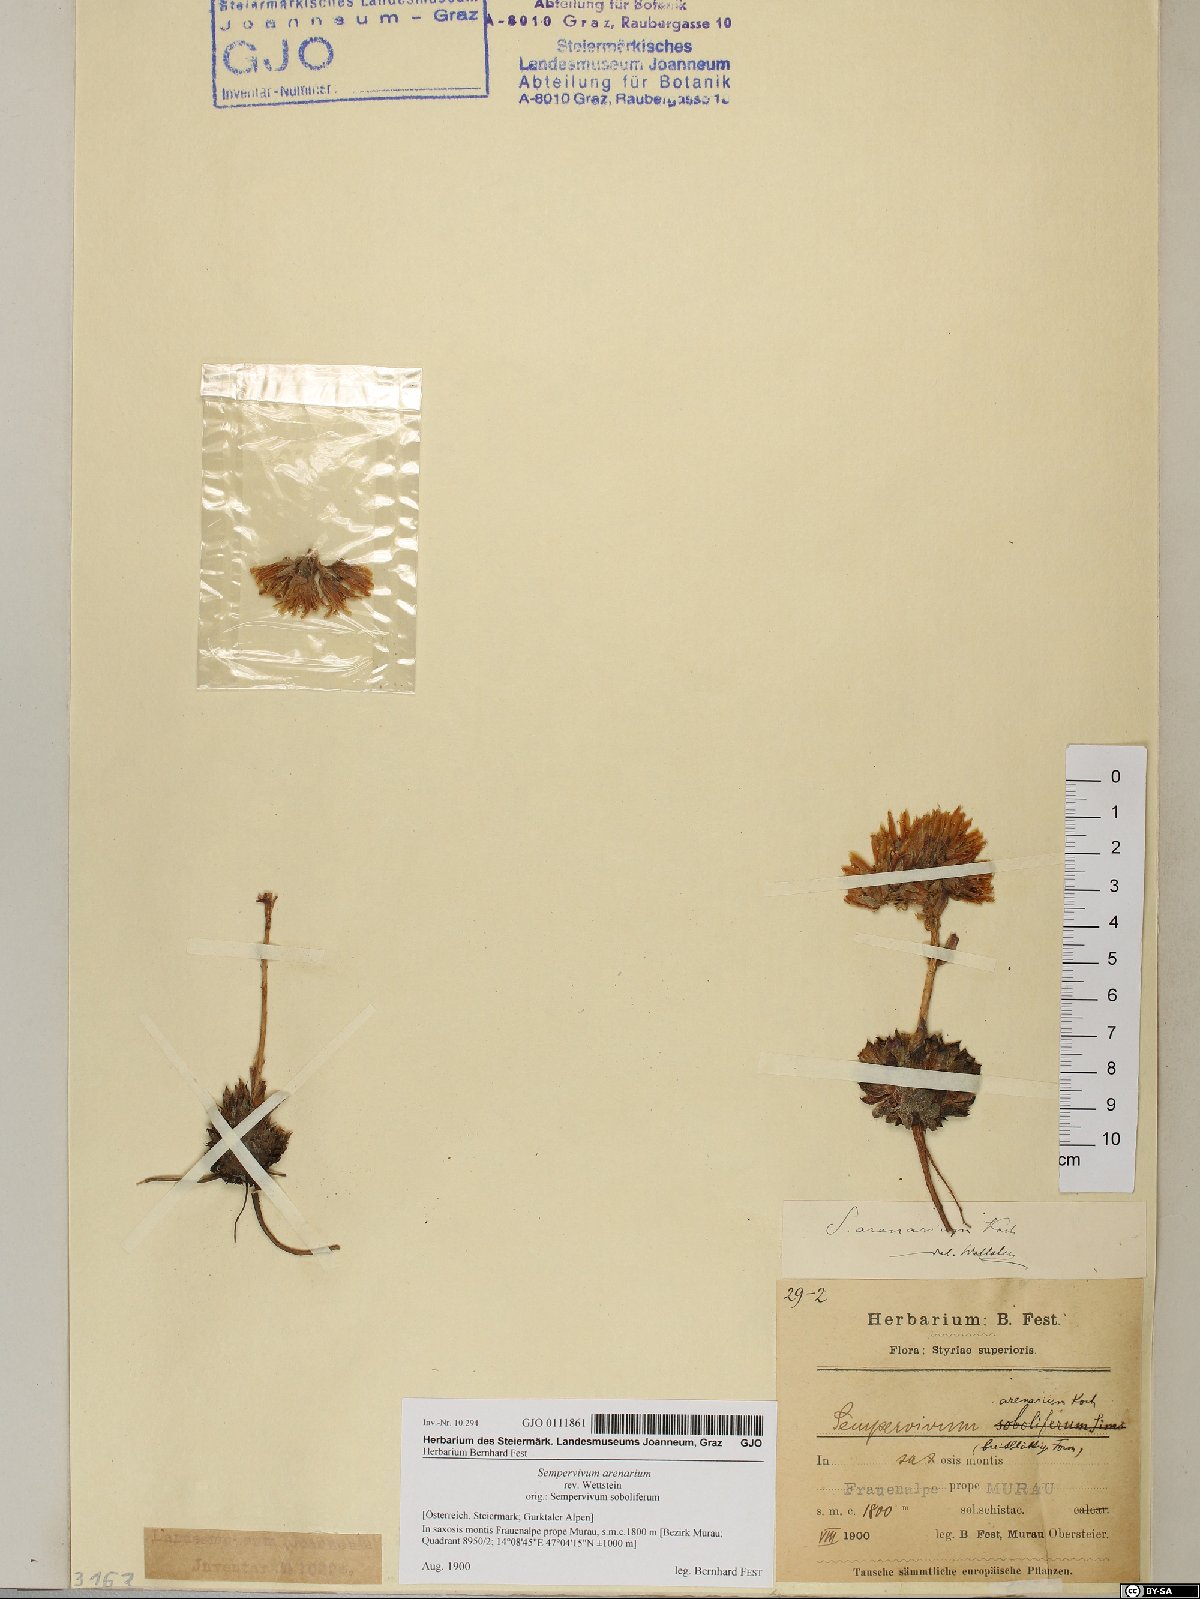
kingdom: Plantae
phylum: Tracheophyta
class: Magnoliopsida
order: Saxifragales
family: Crassulaceae
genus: Sempervivum
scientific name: Sempervivum globiferum
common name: Rolling hen-and-chicks
